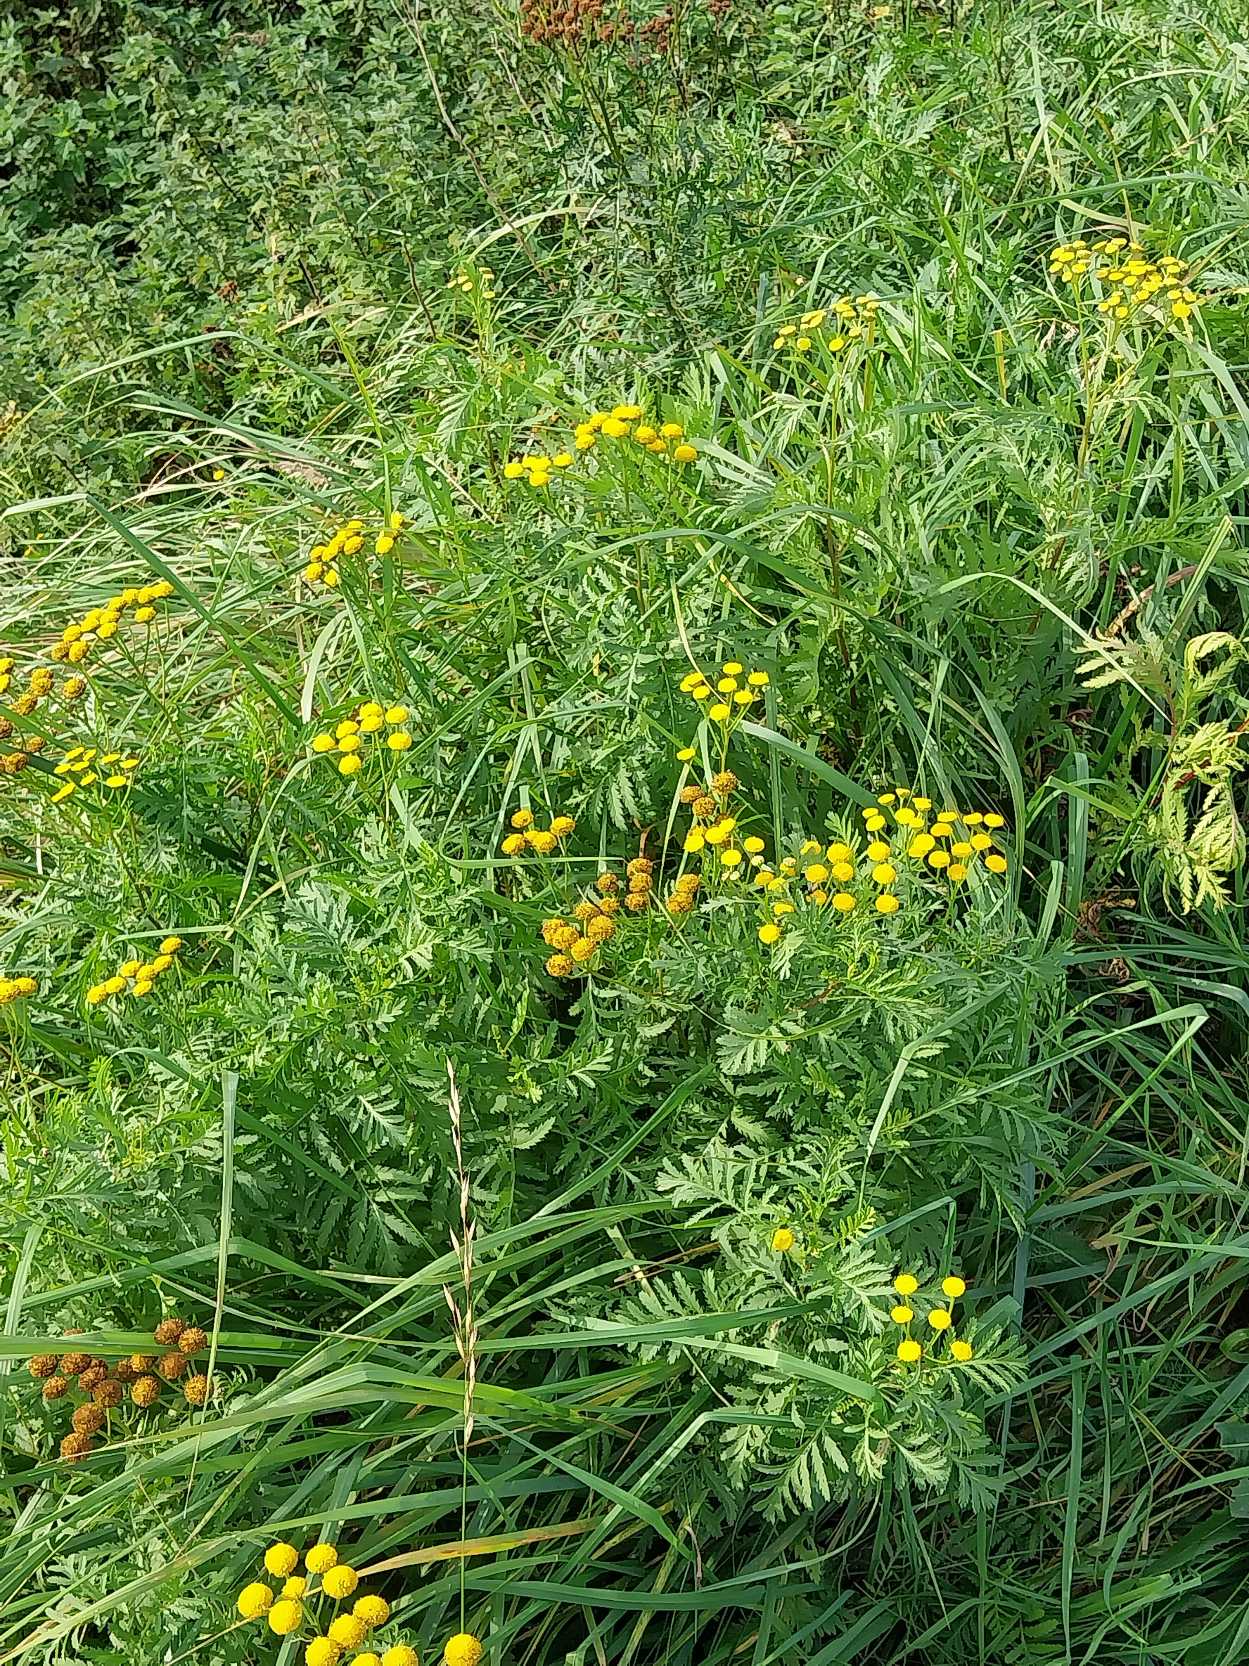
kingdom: Plantae
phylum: Tracheophyta
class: Magnoliopsida
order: Asterales
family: Asteraceae
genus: Tanacetum
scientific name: Tanacetum vulgare
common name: Rejnfan
